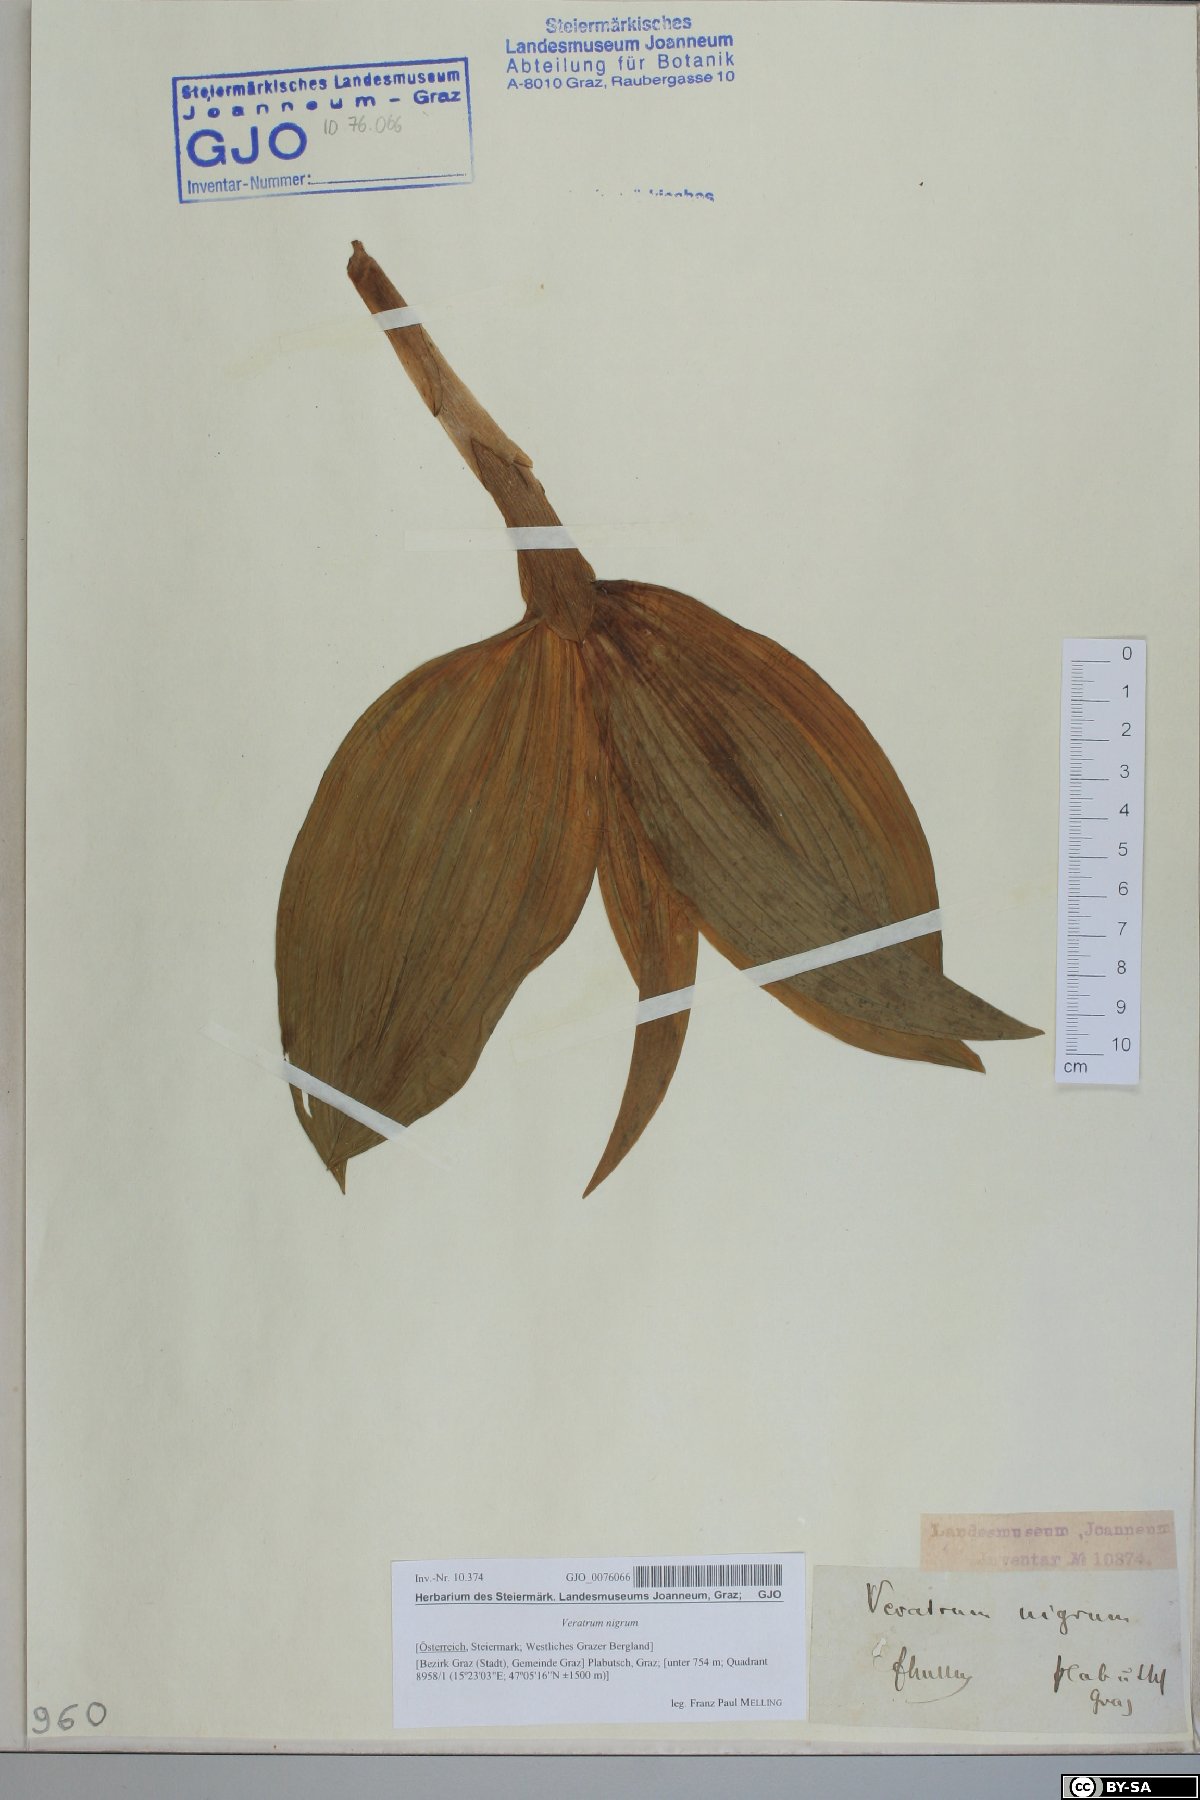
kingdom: Plantae
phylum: Tracheophyta
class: Liliopsida
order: Liliales
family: Melanthiaceae
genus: Veratrum
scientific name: Veratrum nigrum
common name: Black veratrum
